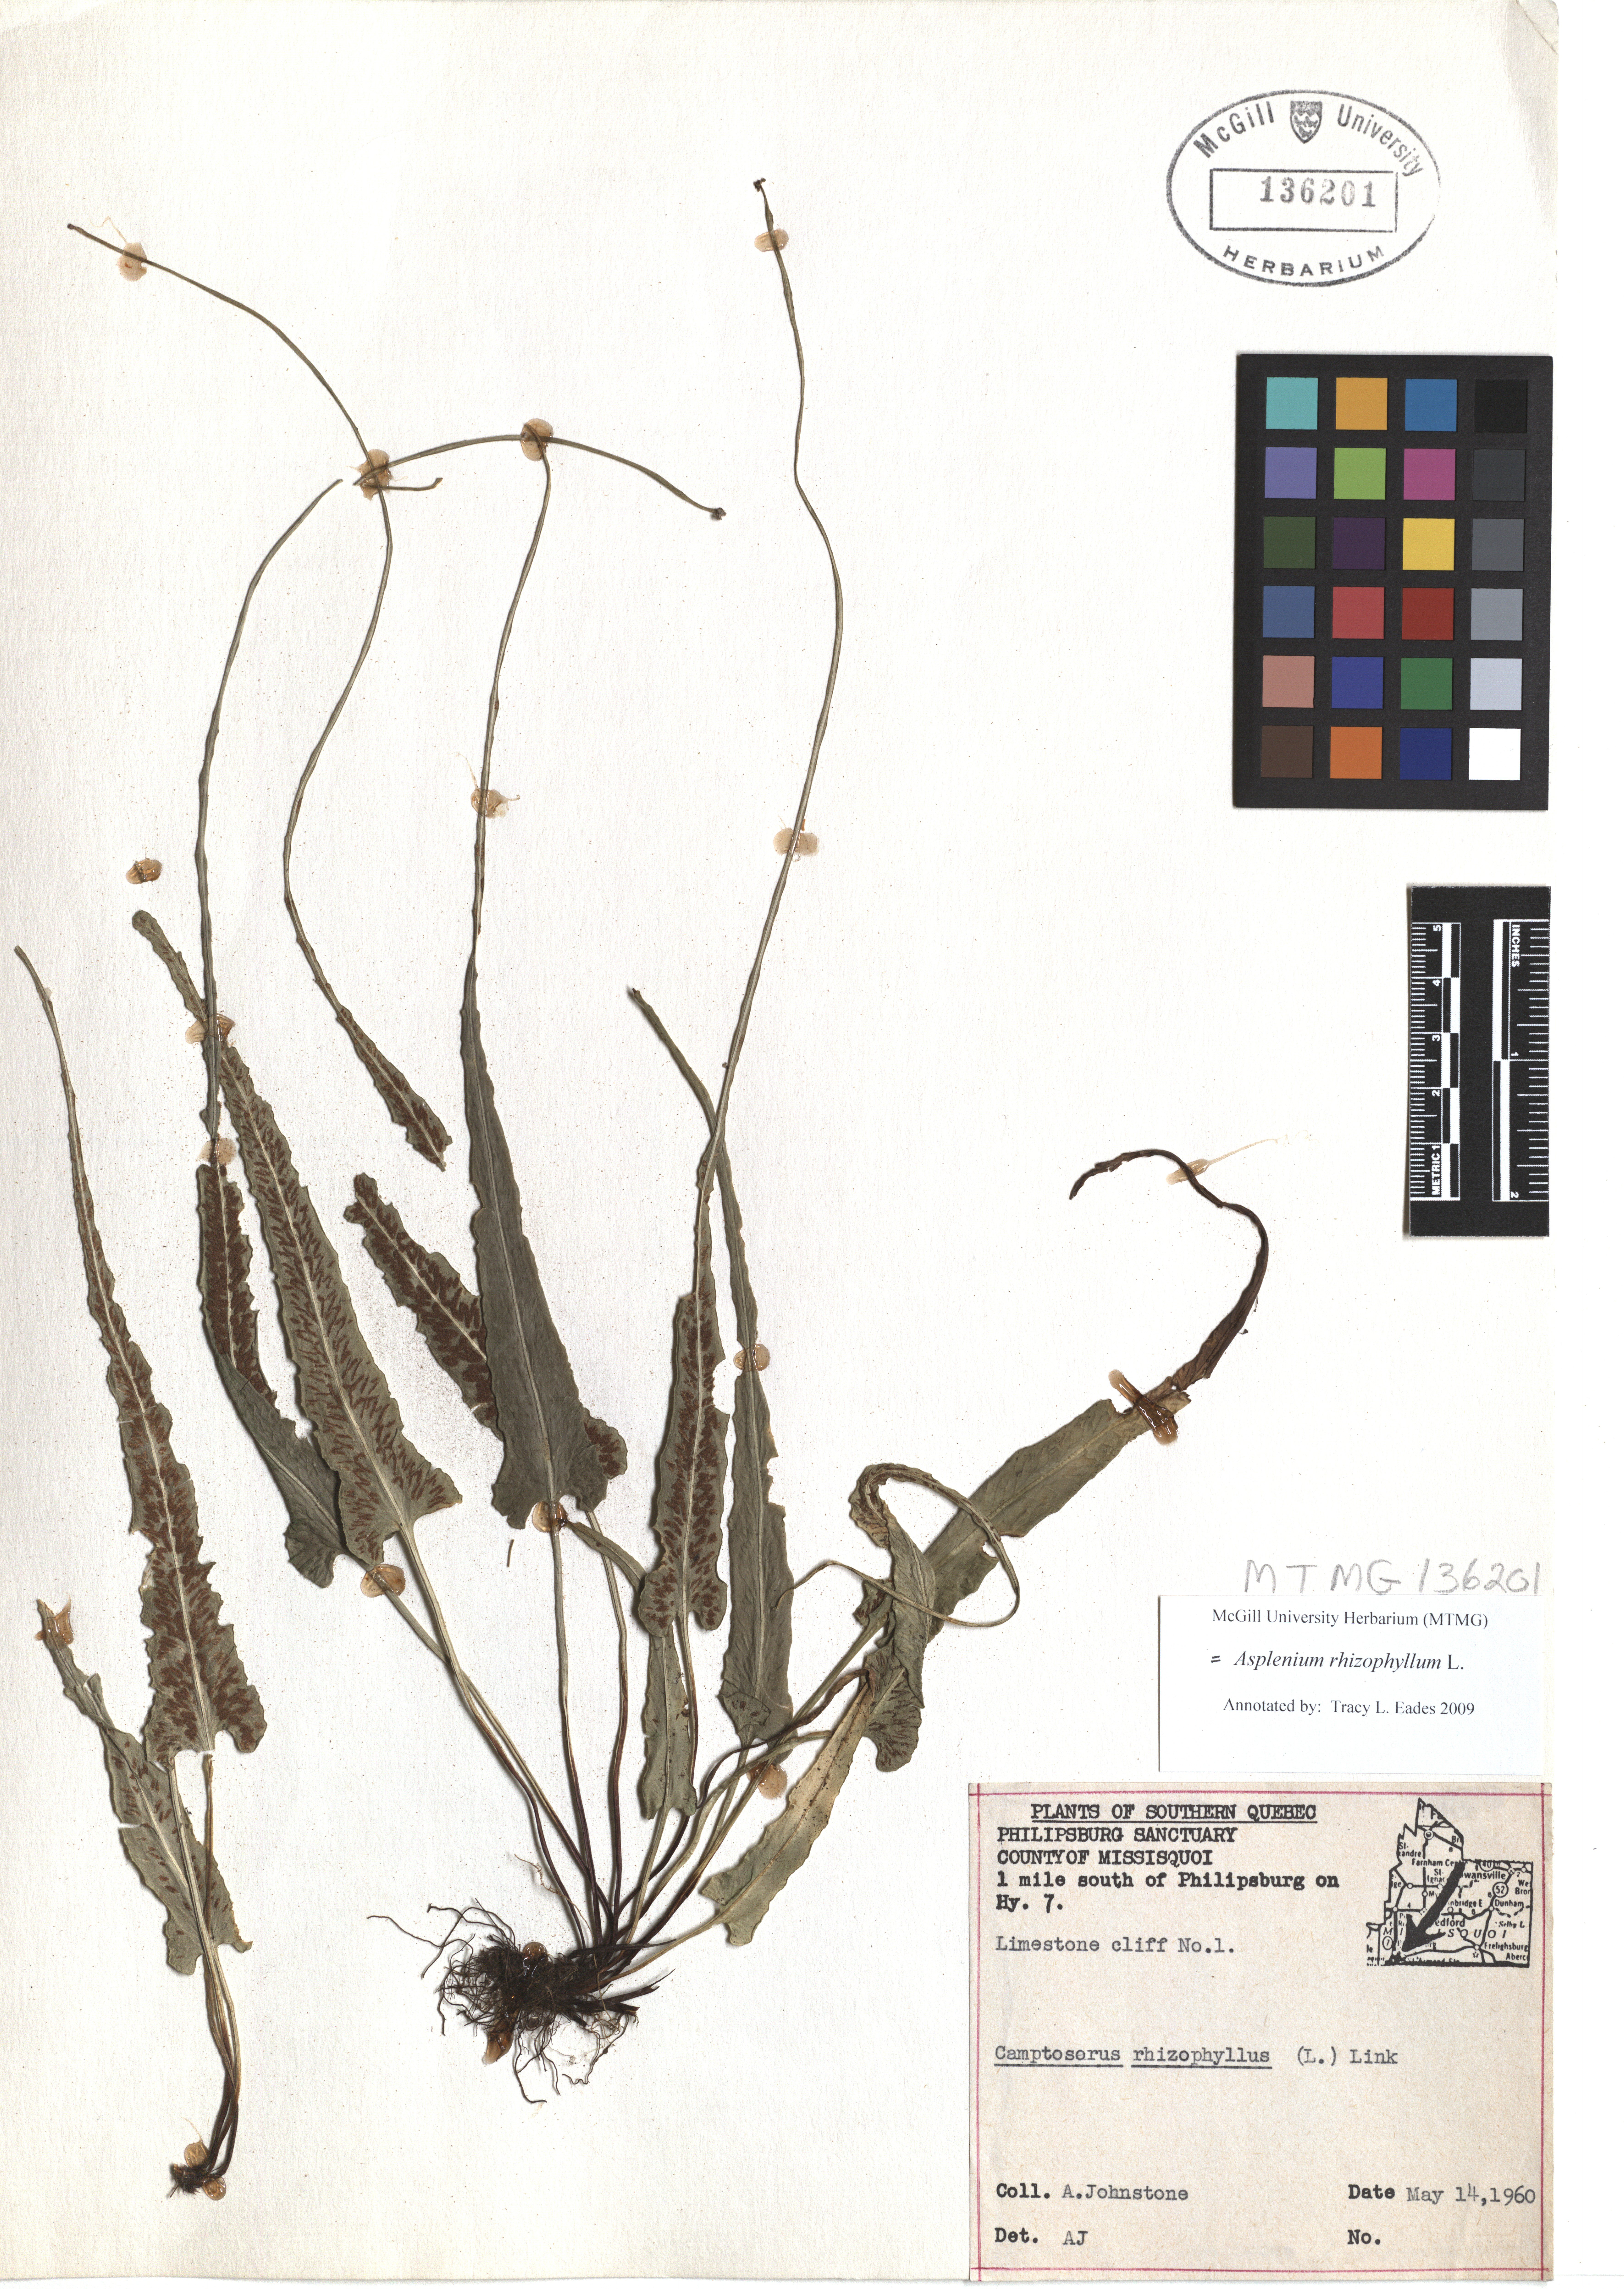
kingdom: Plantae
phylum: Tracheophyta
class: Polypodiopsida
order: Polypodiales
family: Aspleniaceae
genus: Asplenium
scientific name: Asplenium radicans
